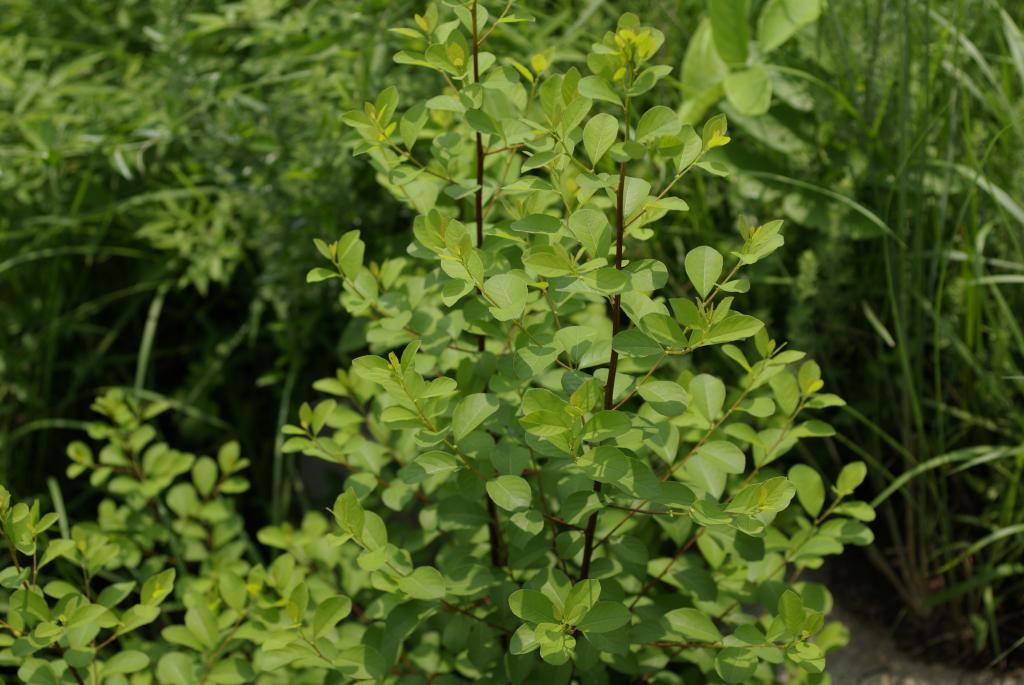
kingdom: Plantae
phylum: Tracheophyta
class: Magnoliopsida
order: Malpighiales
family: Phyllanthaceae
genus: Flueggea
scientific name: Flueggea virosa
